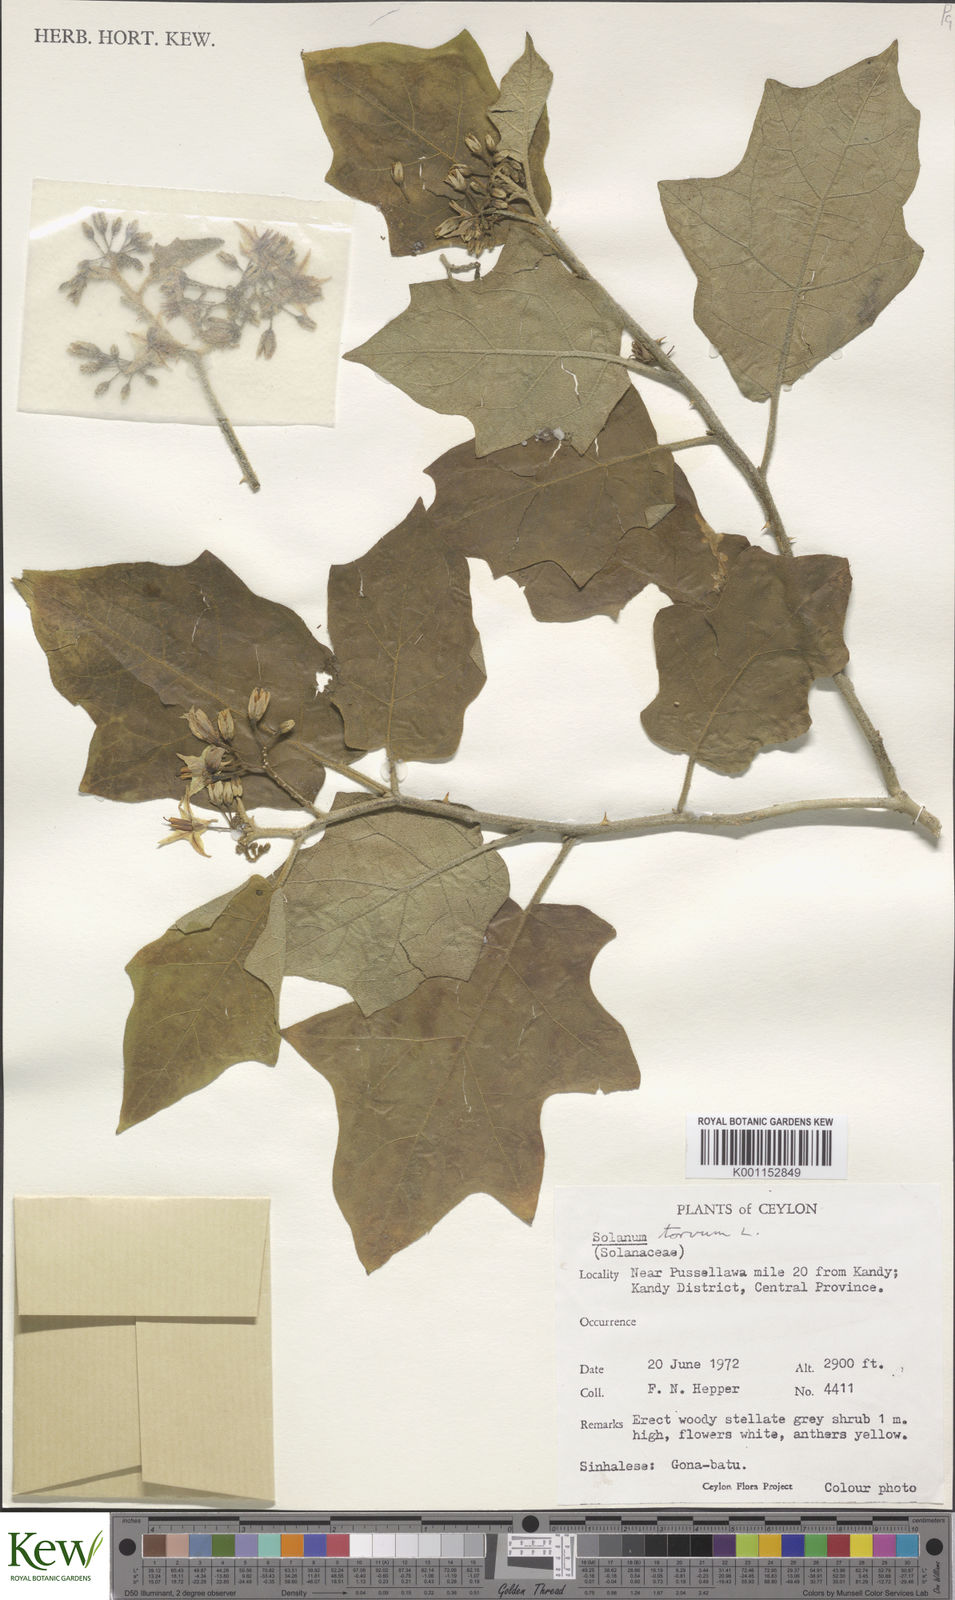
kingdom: Plantae
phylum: Tracheophyta
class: Magnoliopsida
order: Solanales
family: Solanaceae
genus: Solanum
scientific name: Solanum torvum
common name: Turkey berry
